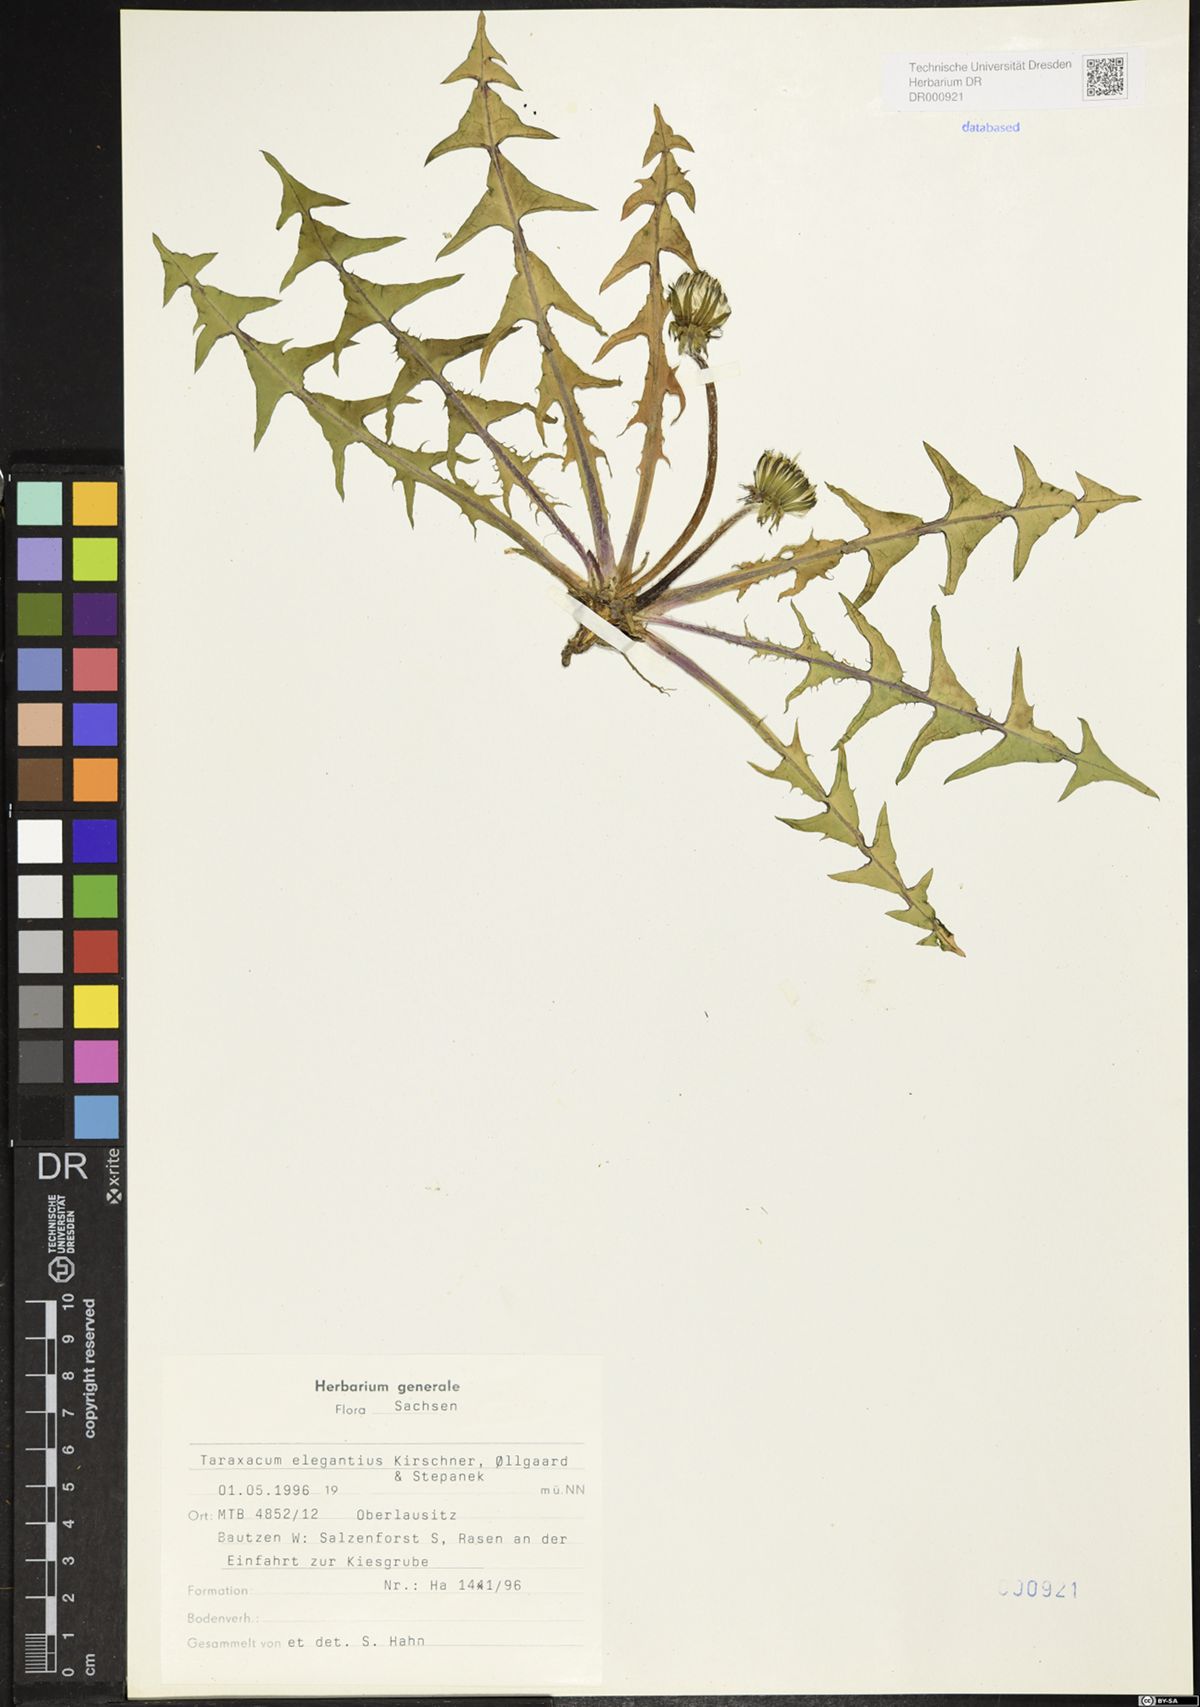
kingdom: Plantae
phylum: Tracheophyta
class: Magnoliopsida
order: Asterales
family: Asteraceae
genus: Taraxacum
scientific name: Taraxacum elegantius
